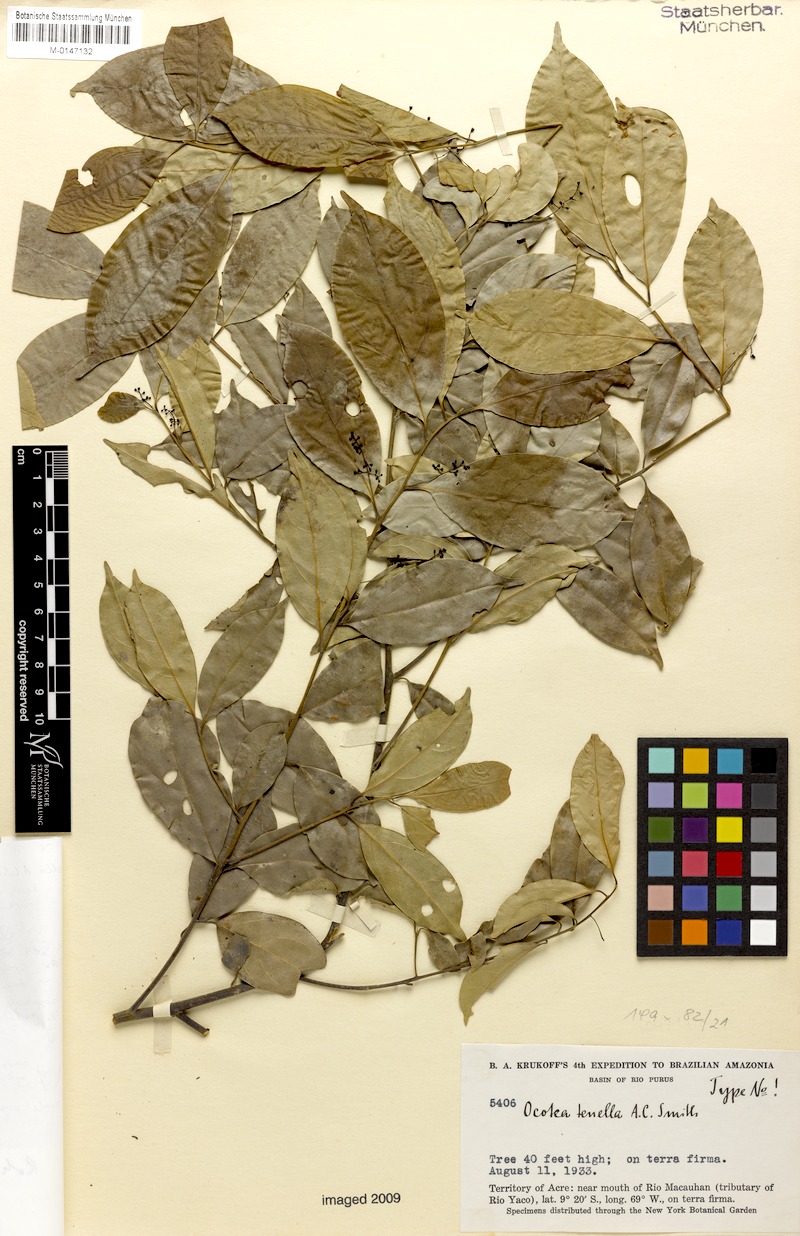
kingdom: Plantae
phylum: Tracheophyta
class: Magnoliopsida
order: Laurales
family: Lauraceae
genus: Ocotea
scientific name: Ocotea tenella
